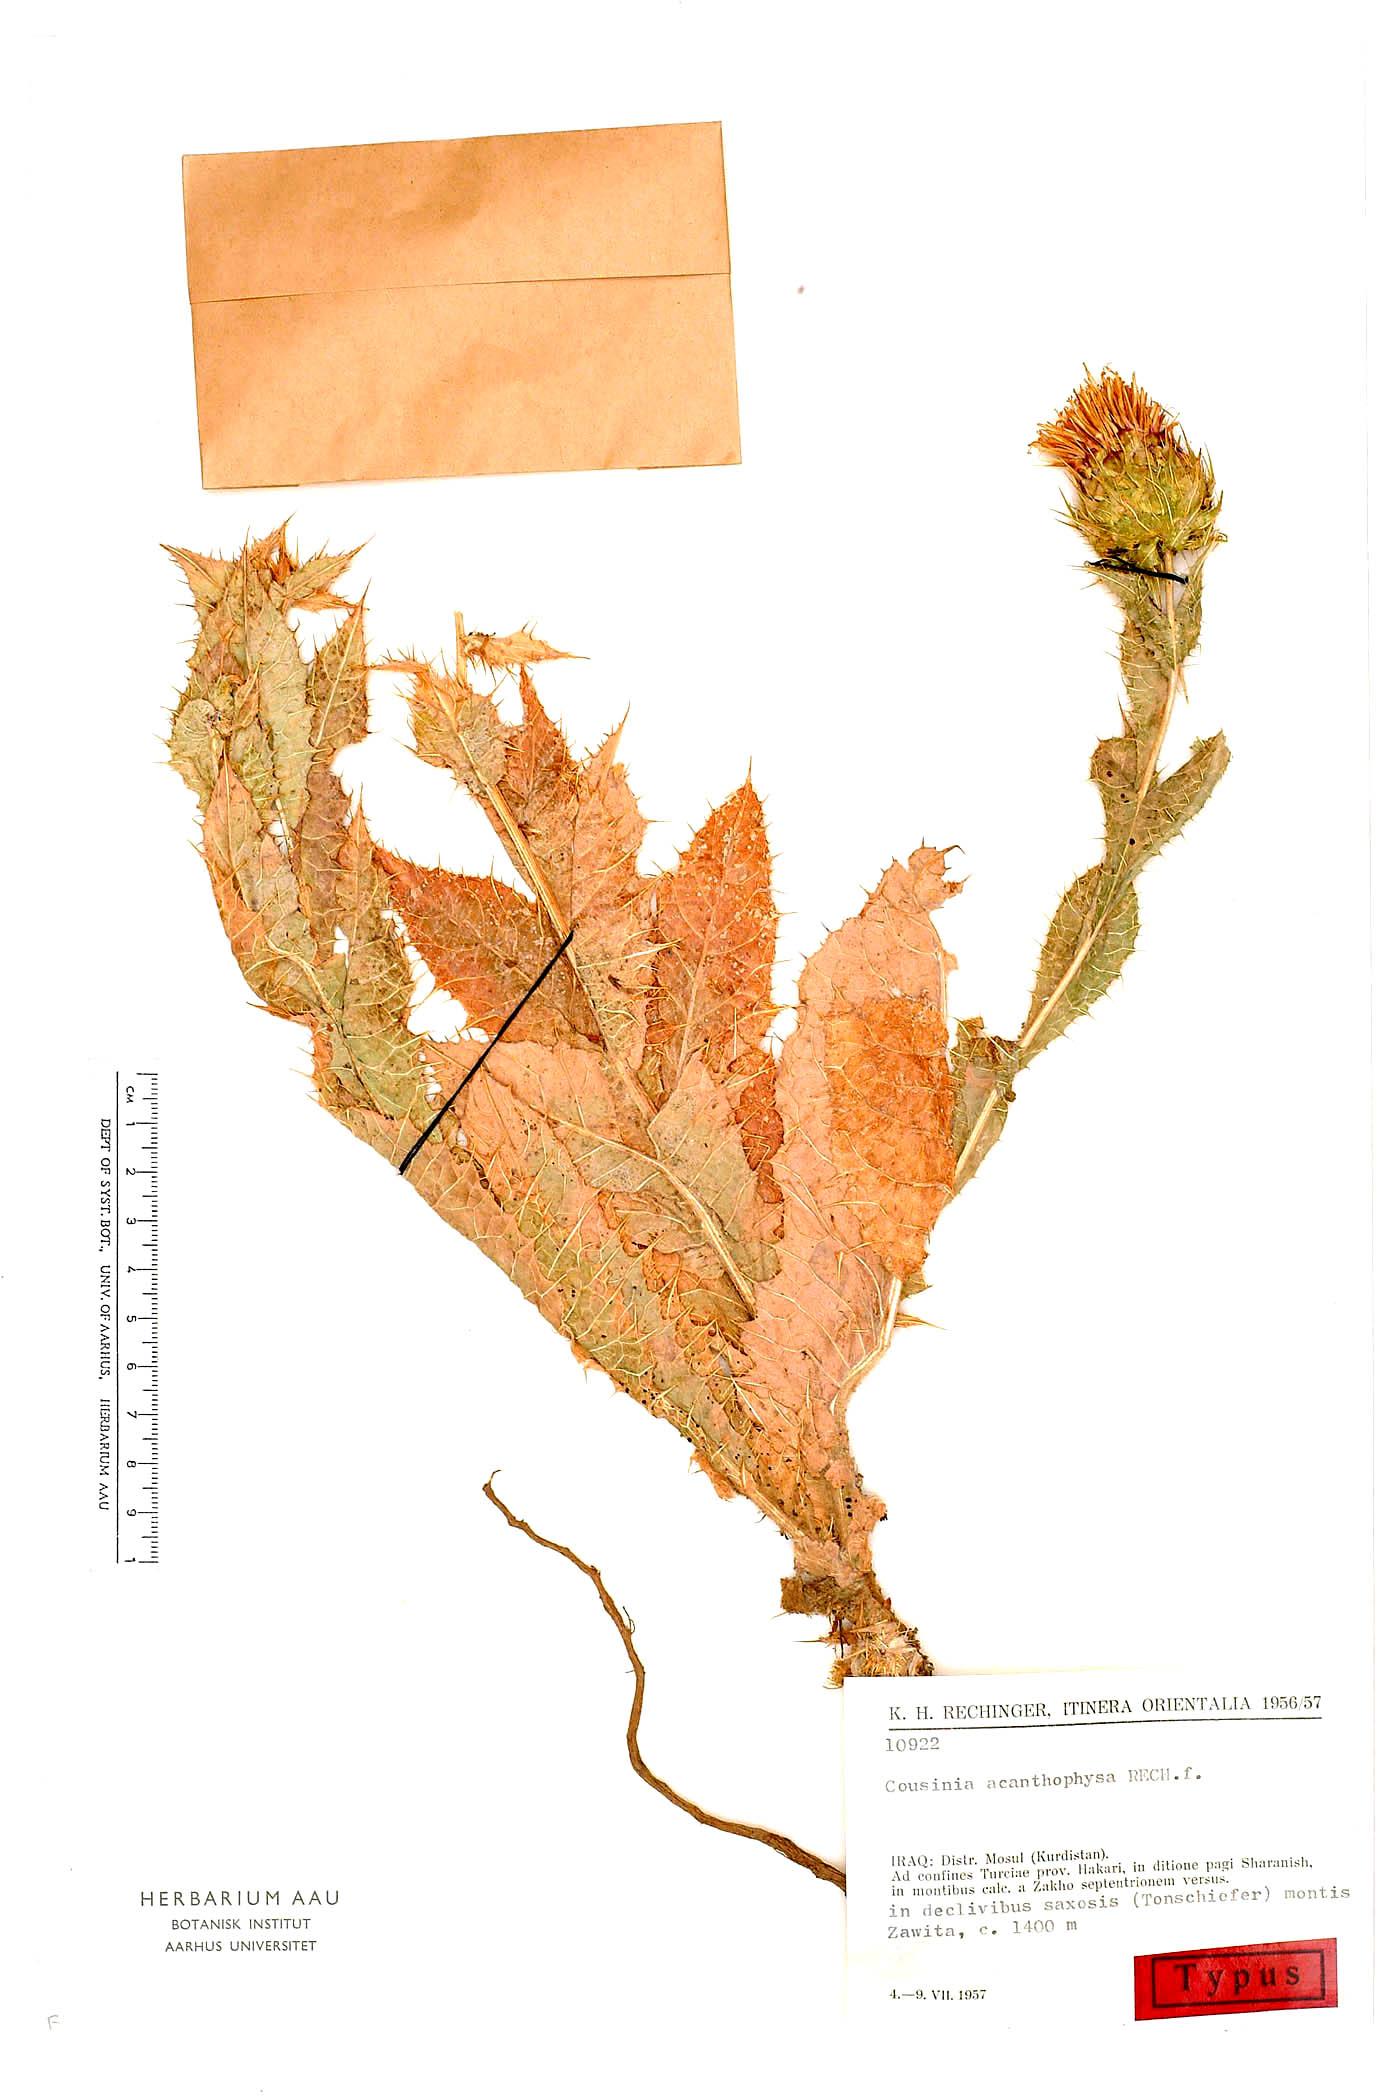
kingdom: Plantae
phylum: Tracheophyta
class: Magnoliopsida
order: Asterales
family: Asteraceae
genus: Cousinia
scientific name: Cousinia odontolepis
